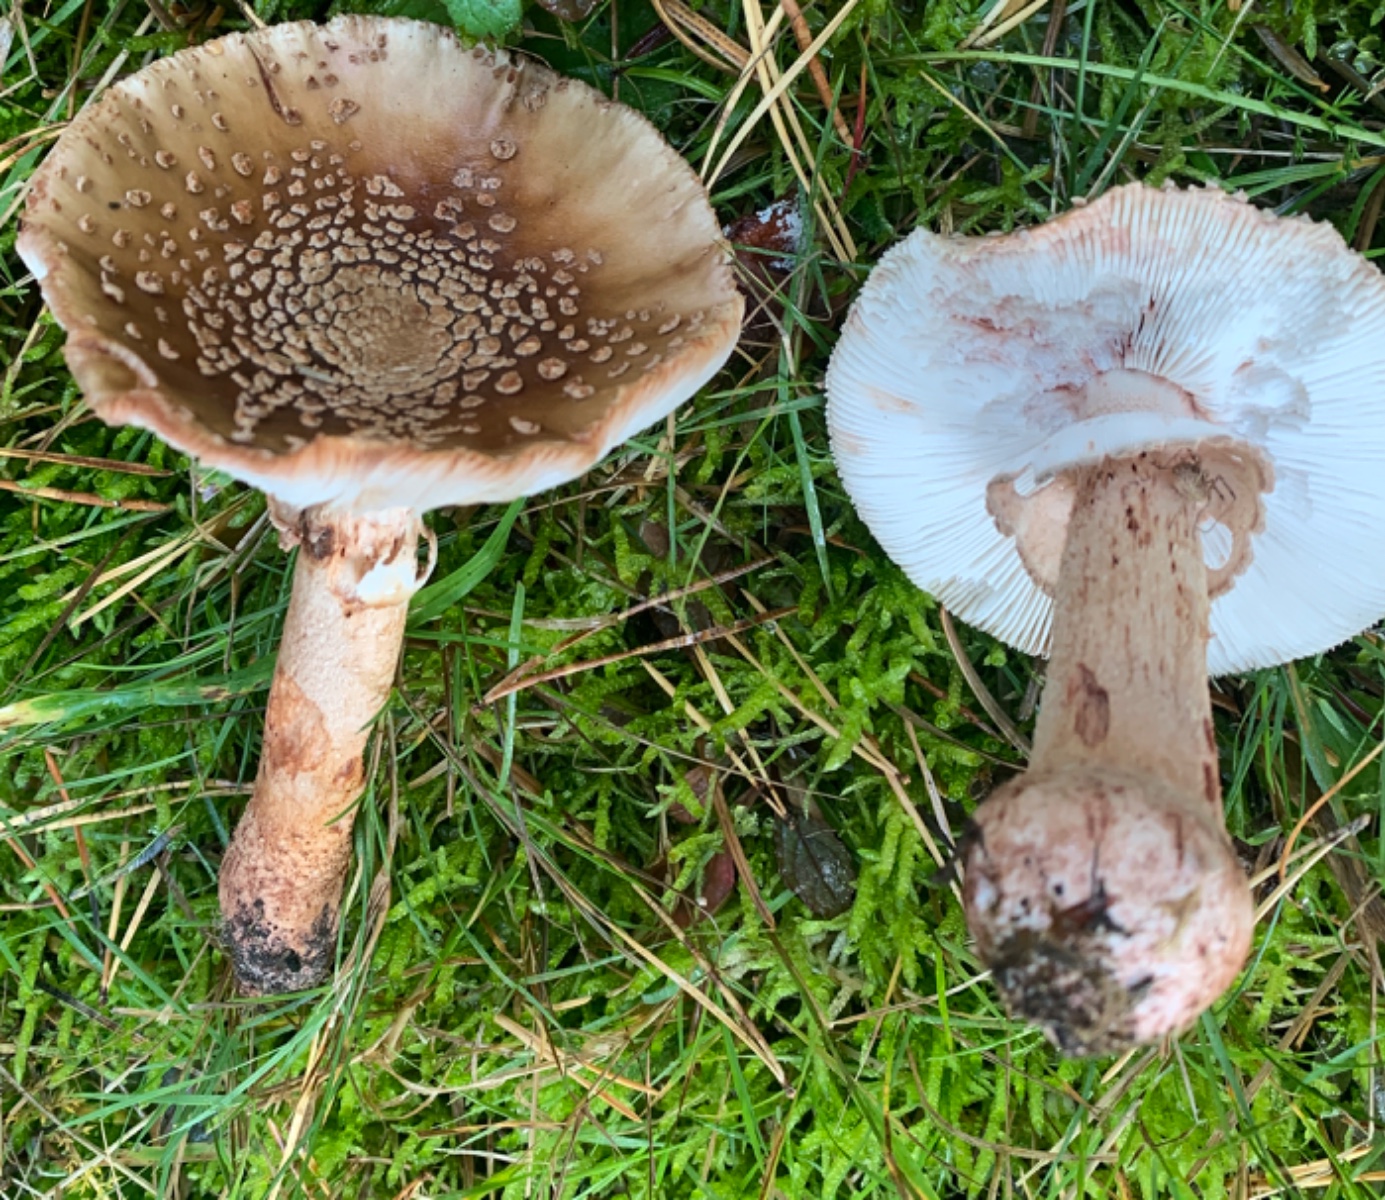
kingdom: Fungi
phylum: Basidiomycota
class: Agaricomycetes
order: Agaricales
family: Amanitaceae
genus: Amanita
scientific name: Amanita rubescens
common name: rødmende fluesvamp
